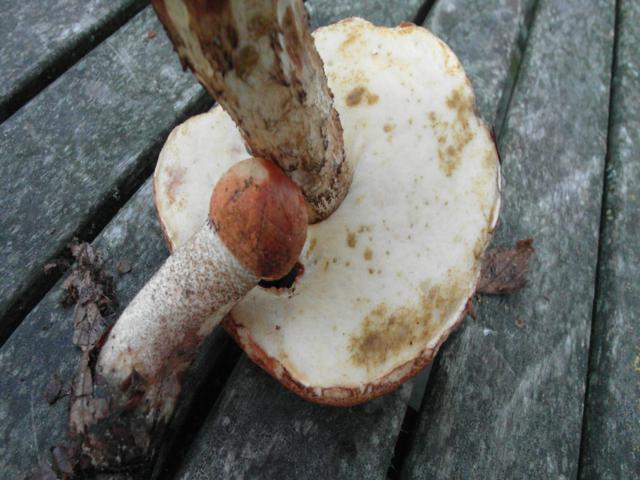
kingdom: Fungi
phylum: Basidiomycota
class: Agaricomycetes
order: Boletales
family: Boletaceae
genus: Leccinum
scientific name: Leccinum aurantiacum
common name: rustrød skælrørhat
